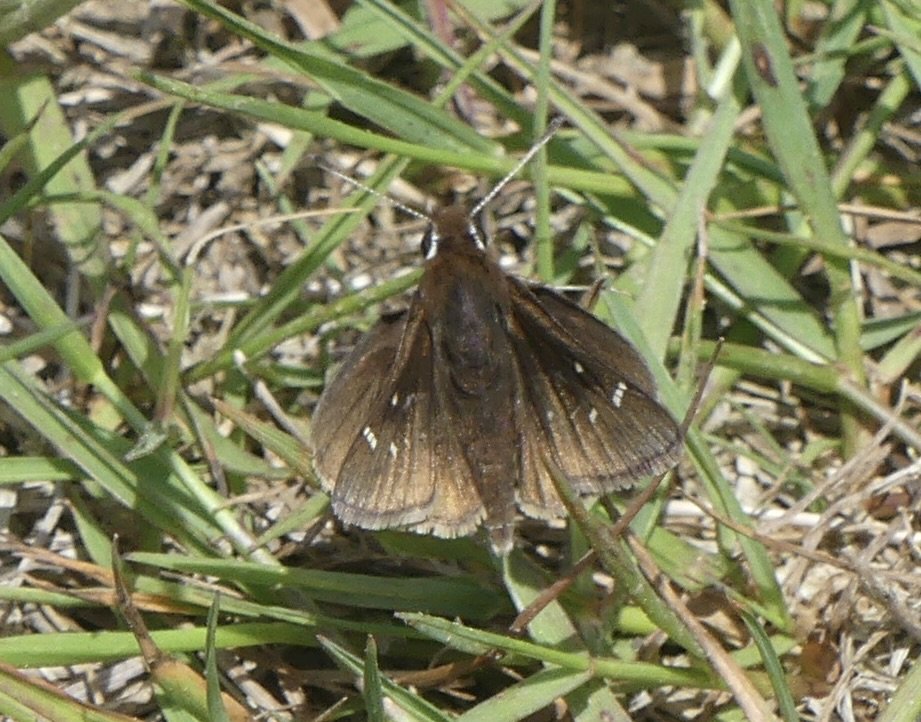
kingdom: Animalia
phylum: Arthropoda
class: Insecta
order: Lepidoptera
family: Hesperiidae
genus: Atrytonopsis
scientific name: Atrytonopsis hianna
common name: Dusted Skipper
